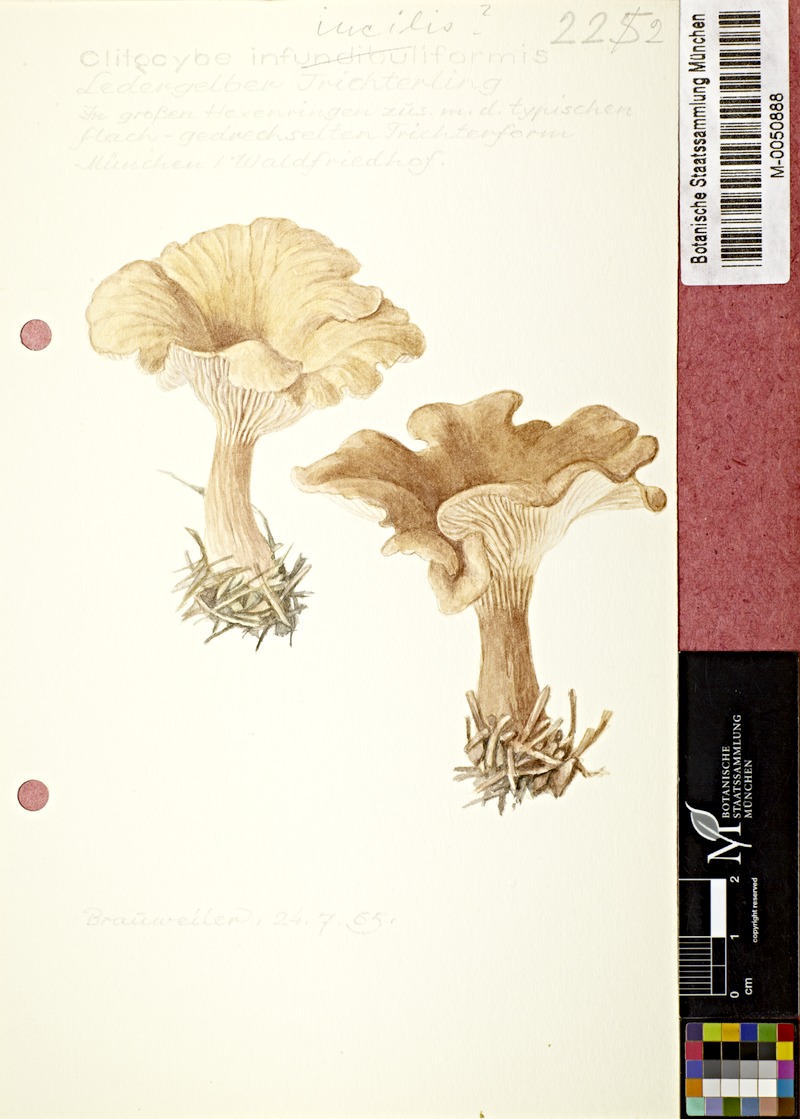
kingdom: Fungi
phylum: Basidiomycota
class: Agaricomycetes
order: Agaricales
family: Tricholomataceae
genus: Clitocybe
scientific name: Clitocybe incilis
